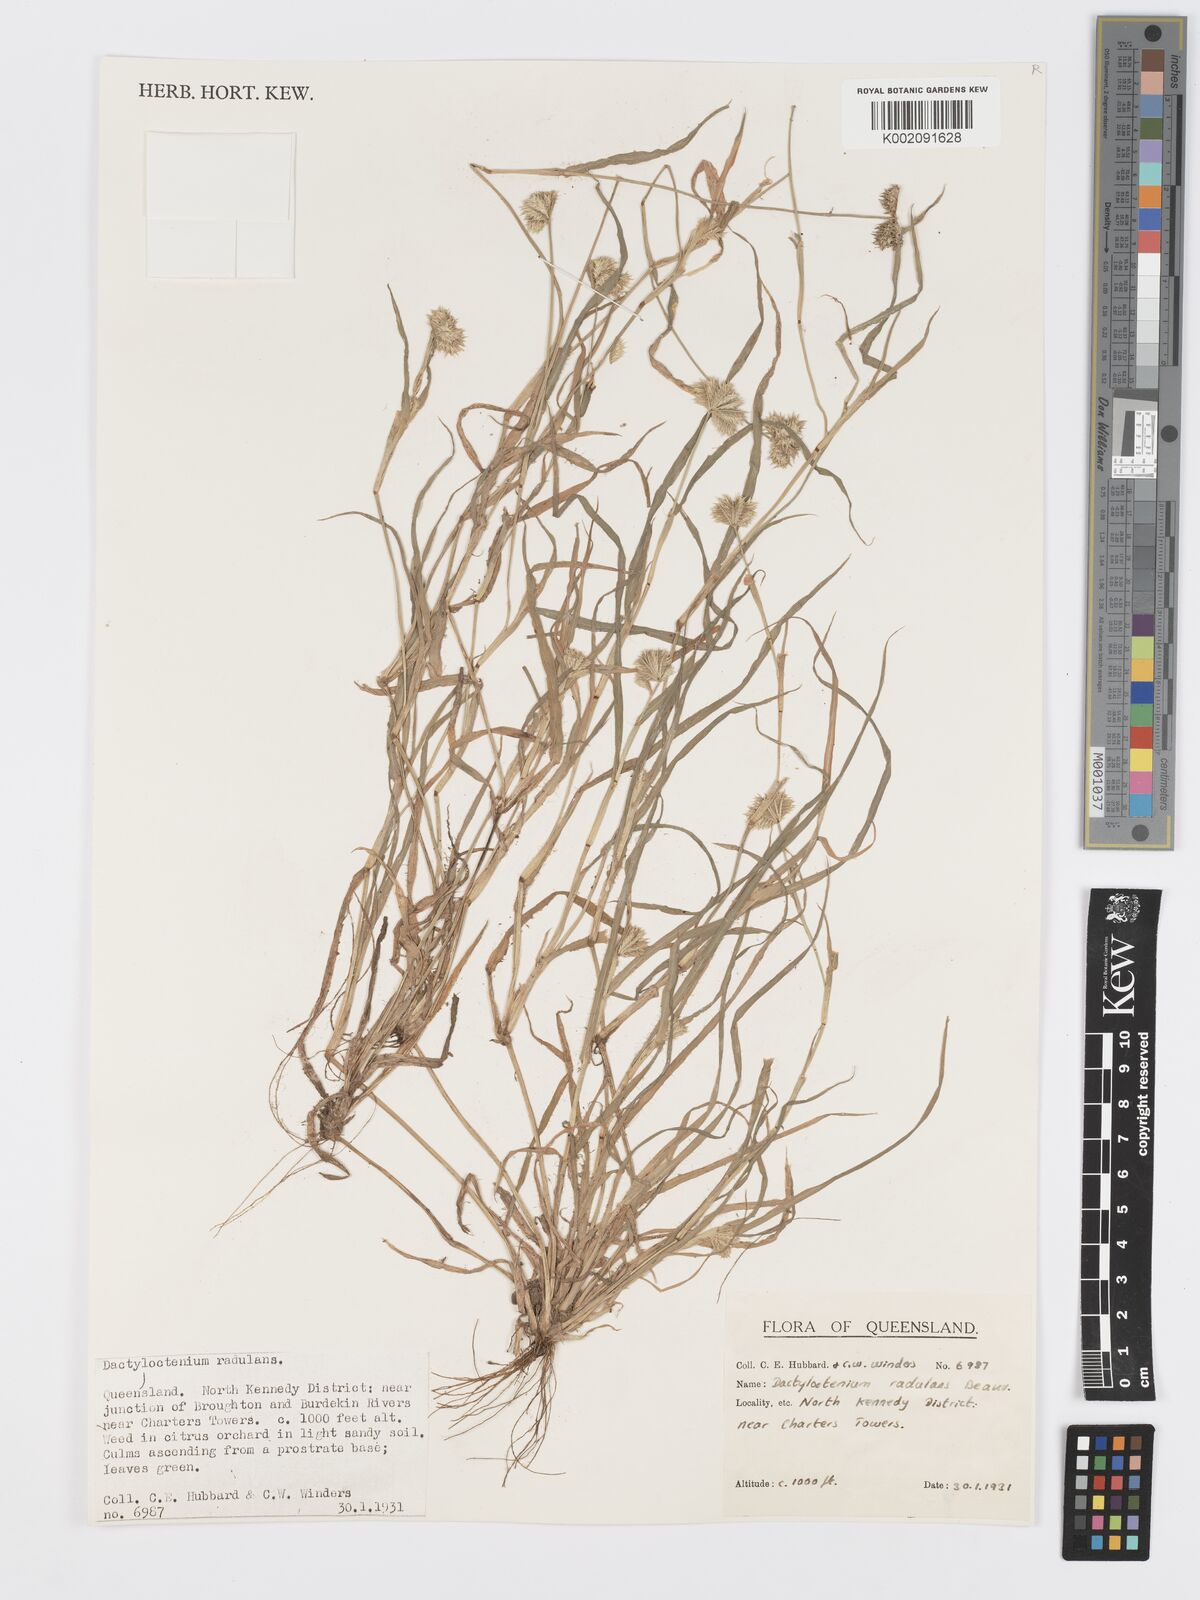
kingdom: Plantae
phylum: Tracheophyta
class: Liliopsida
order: Poales
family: Poaceae
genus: Dactyloctenium
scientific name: Dactyloctenium radulans
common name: Button-grass
